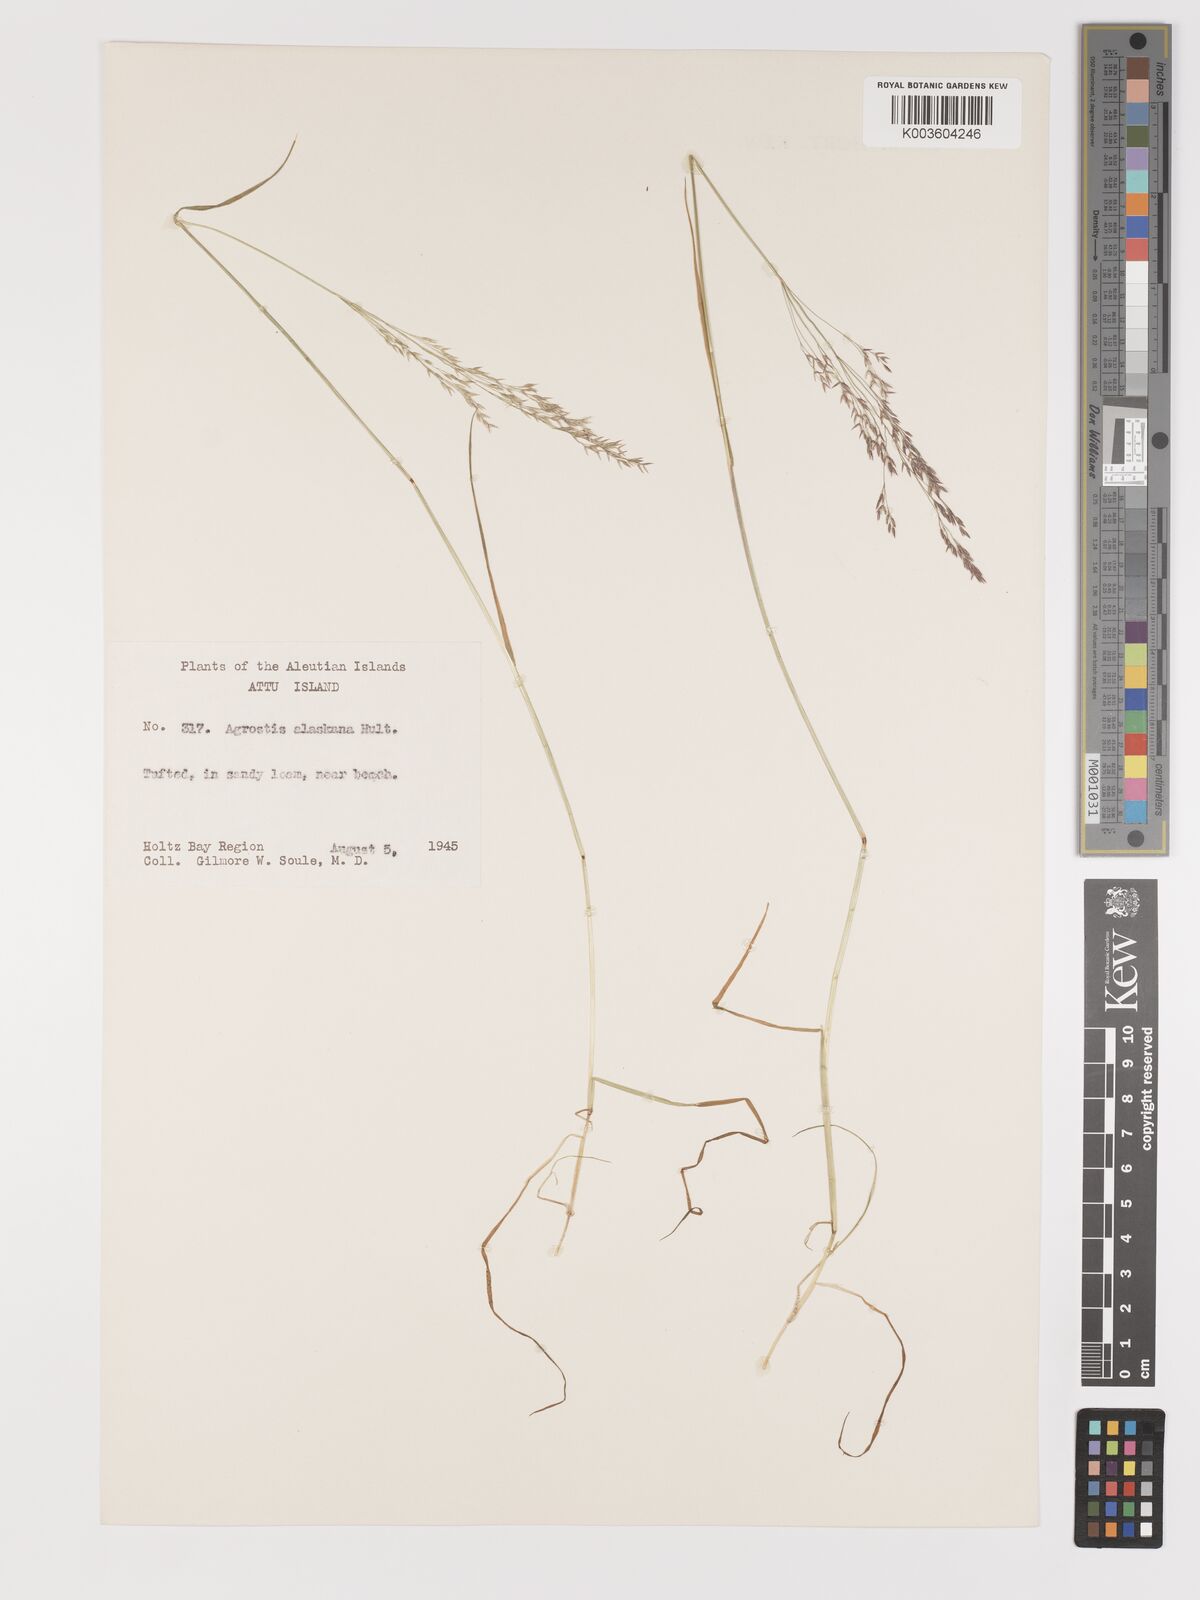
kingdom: Plantae
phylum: Tracheophyta
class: Liliopsida
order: Poales
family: Poaceae
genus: Agrostis
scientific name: Agrostis exarata
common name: Spike bent
